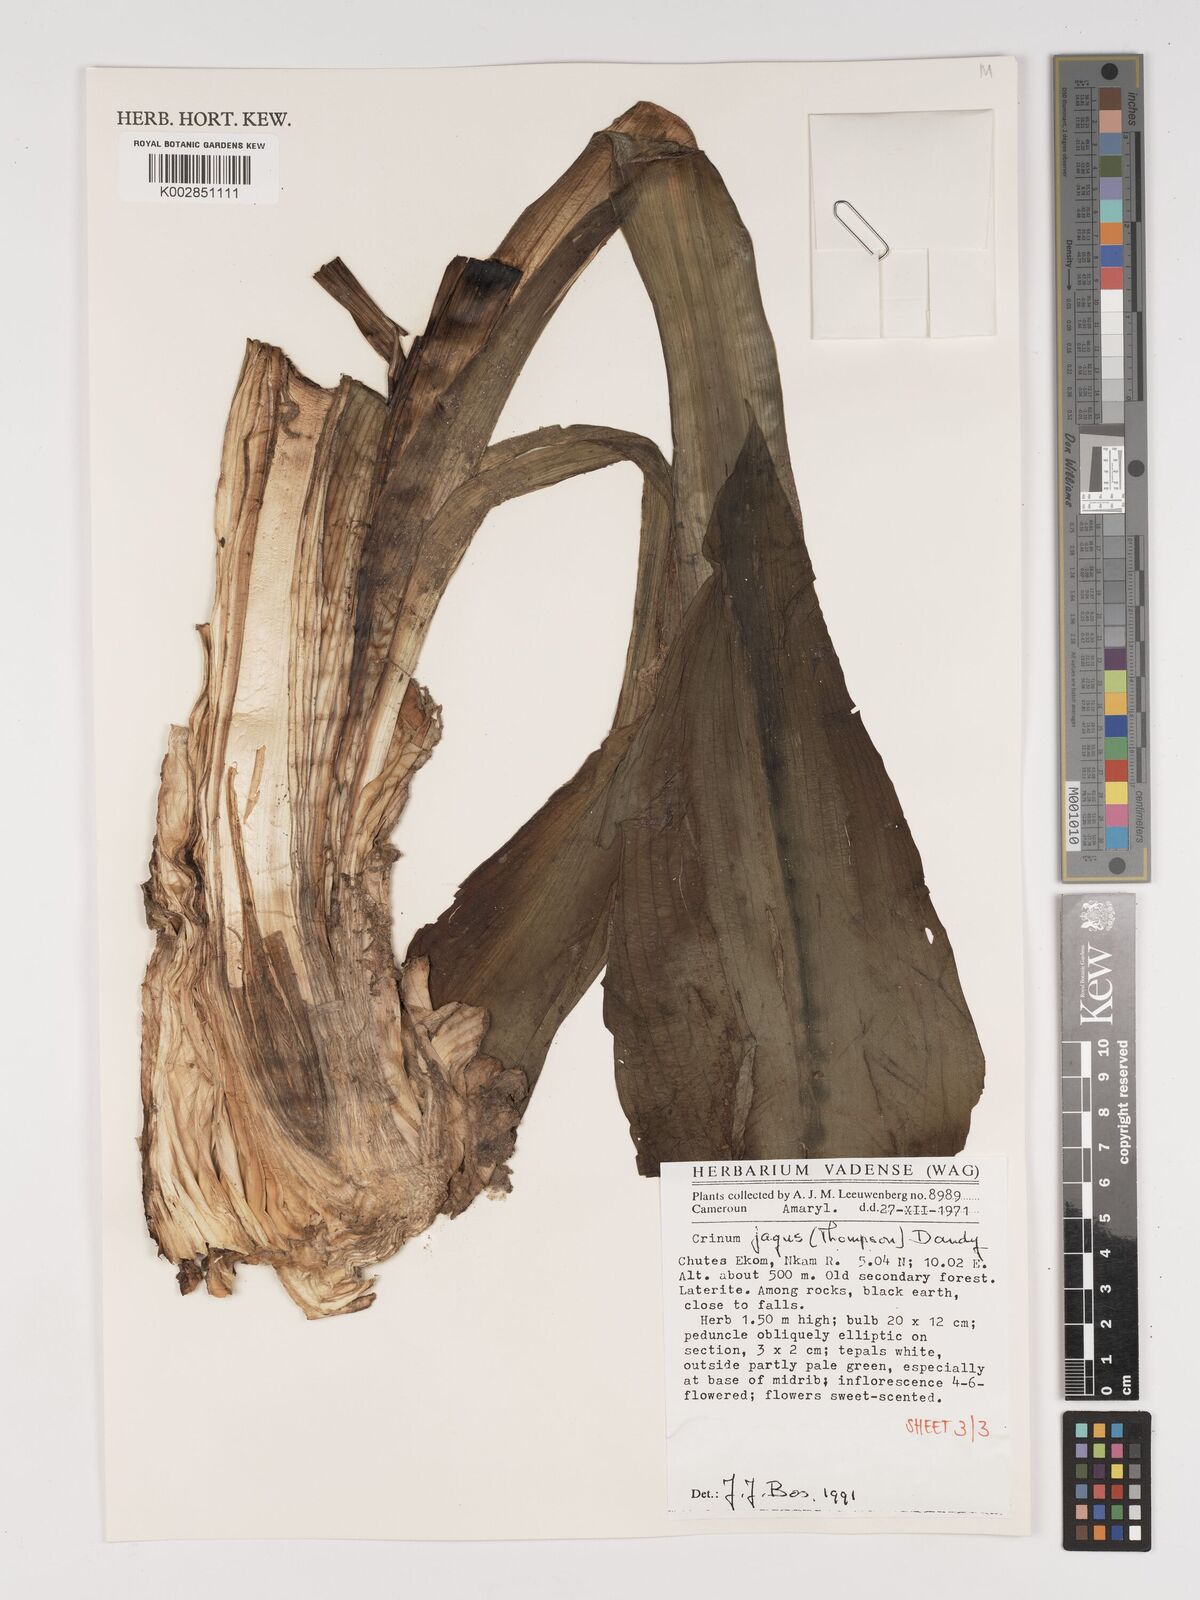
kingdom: Plantae
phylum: Tracheophyta
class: Liliopsida
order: Asparagales
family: Amaryllidaceae
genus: Crinum
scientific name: Crinum jagus
